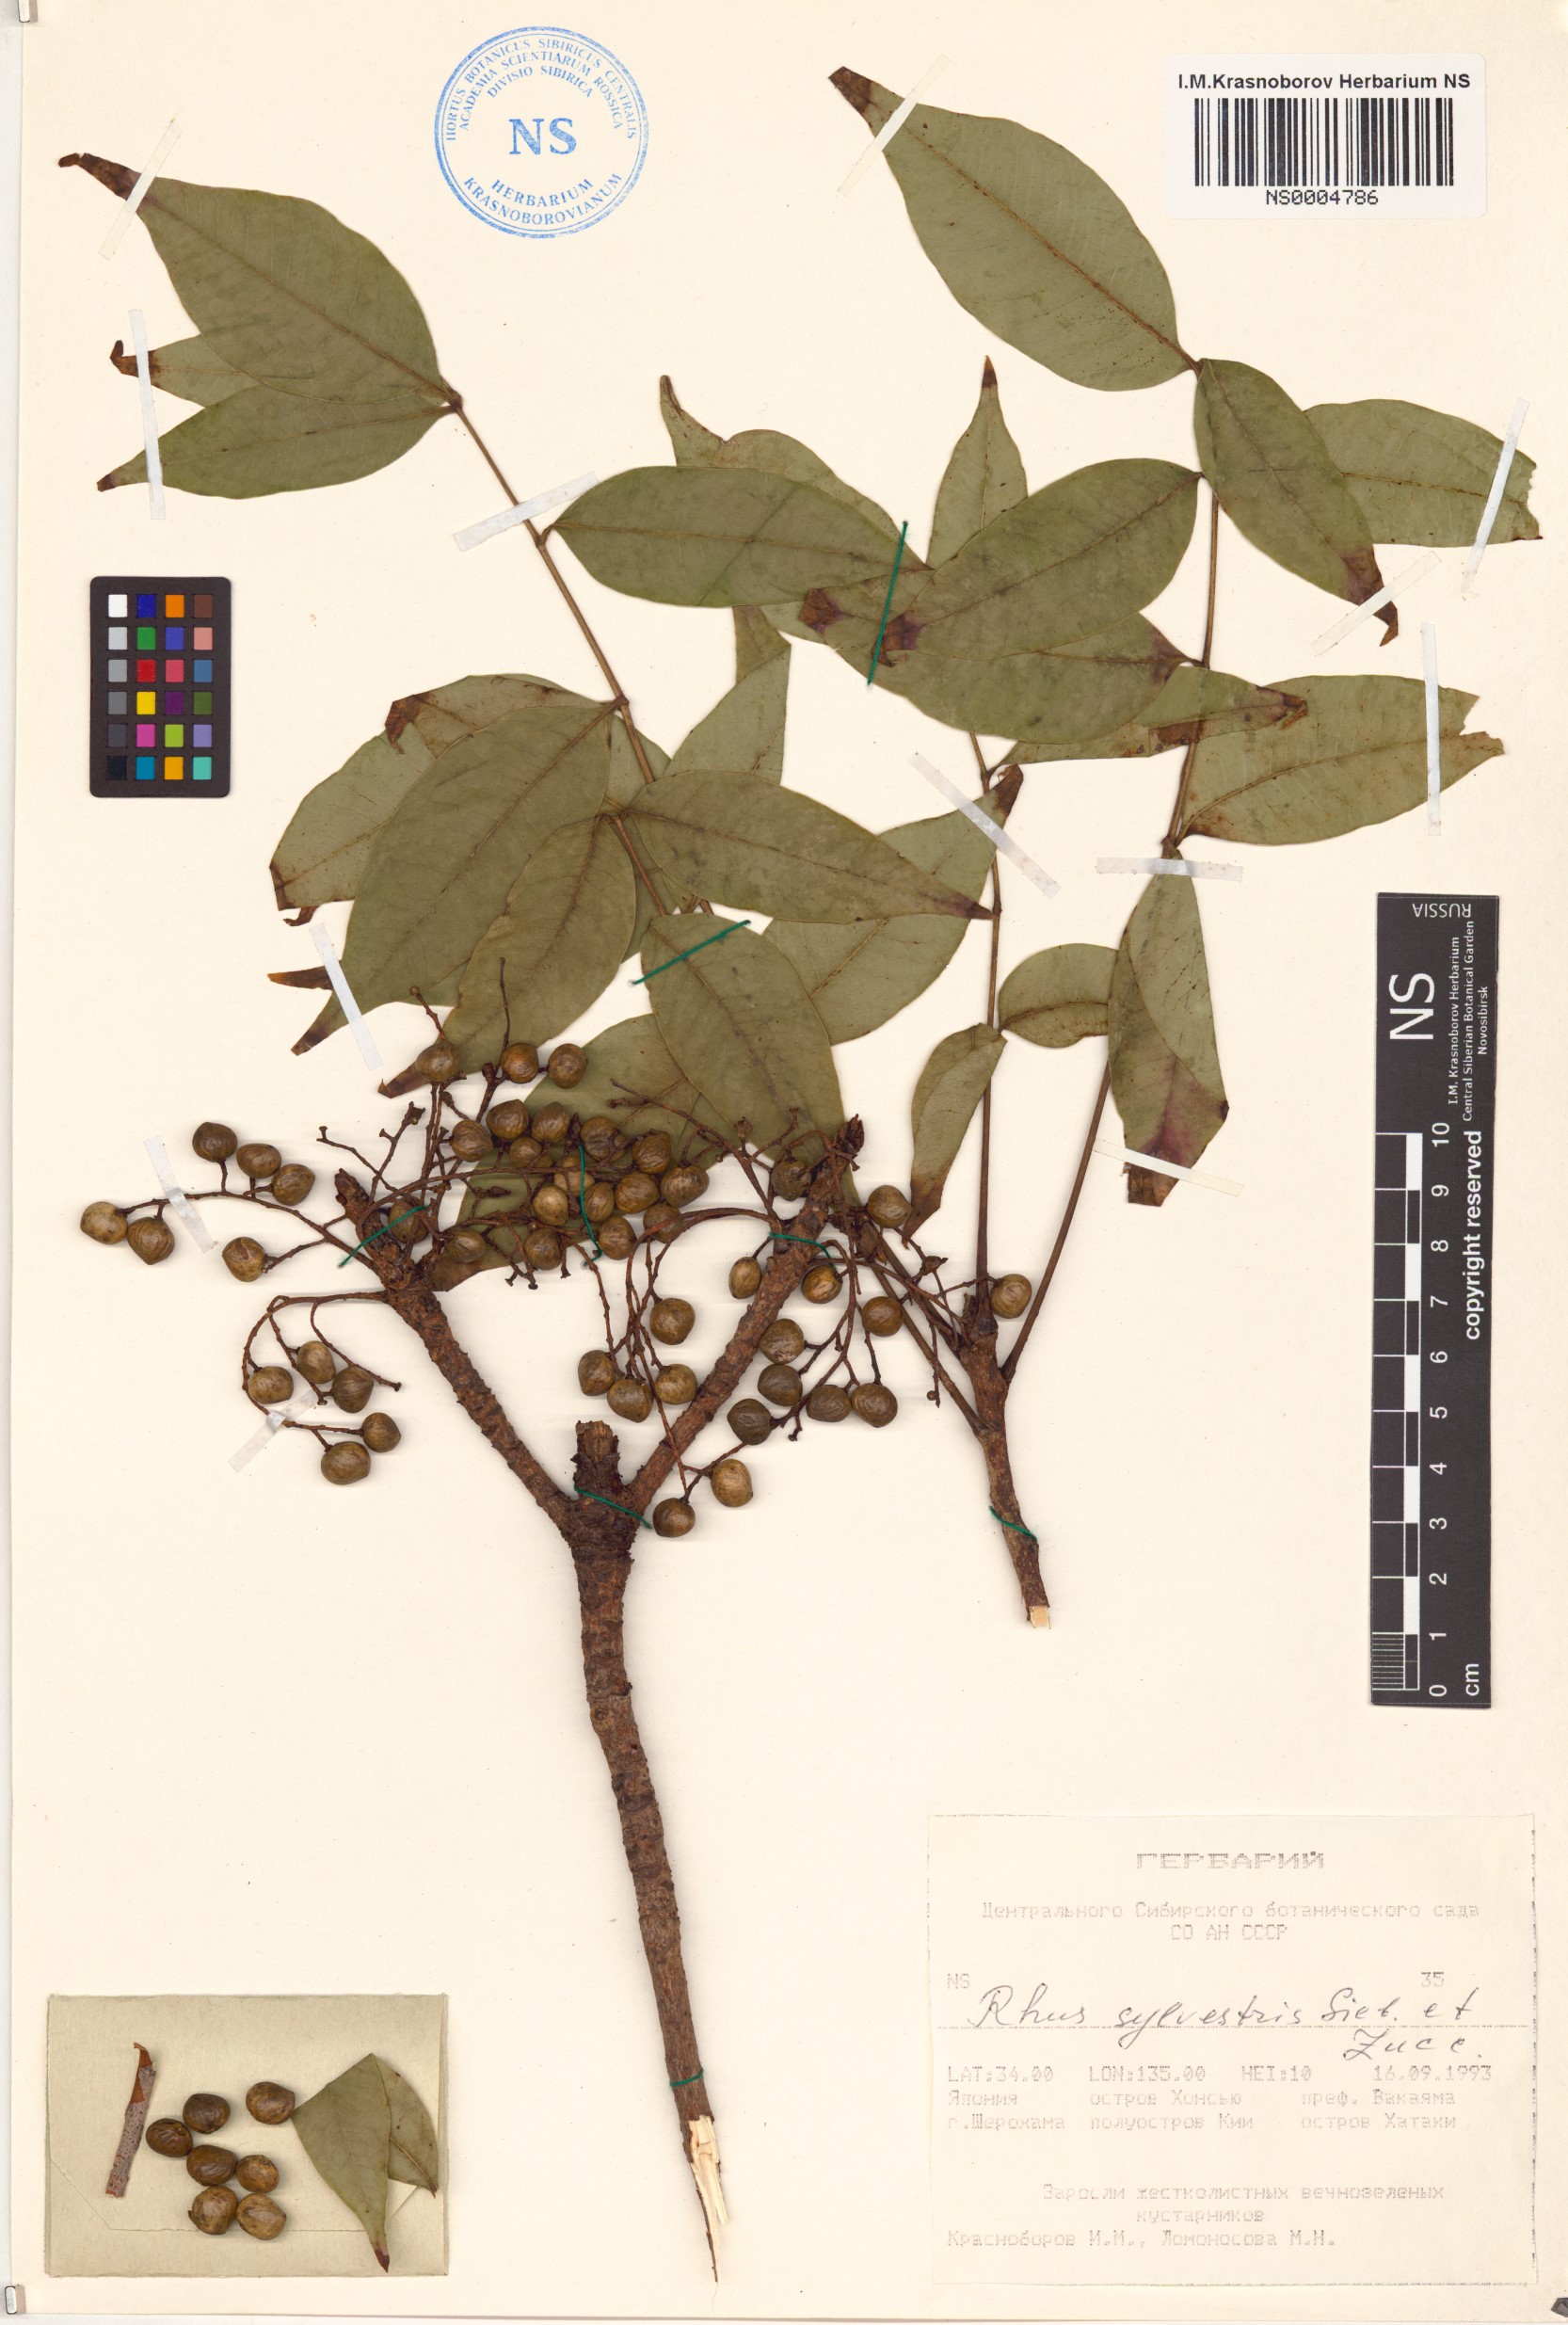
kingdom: Plantae
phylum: Tracheophyta
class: Magnoliopsida
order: Sapindales
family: Anacardiaceae
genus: Toxicodendron
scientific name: Toxicodendron sylvestre
